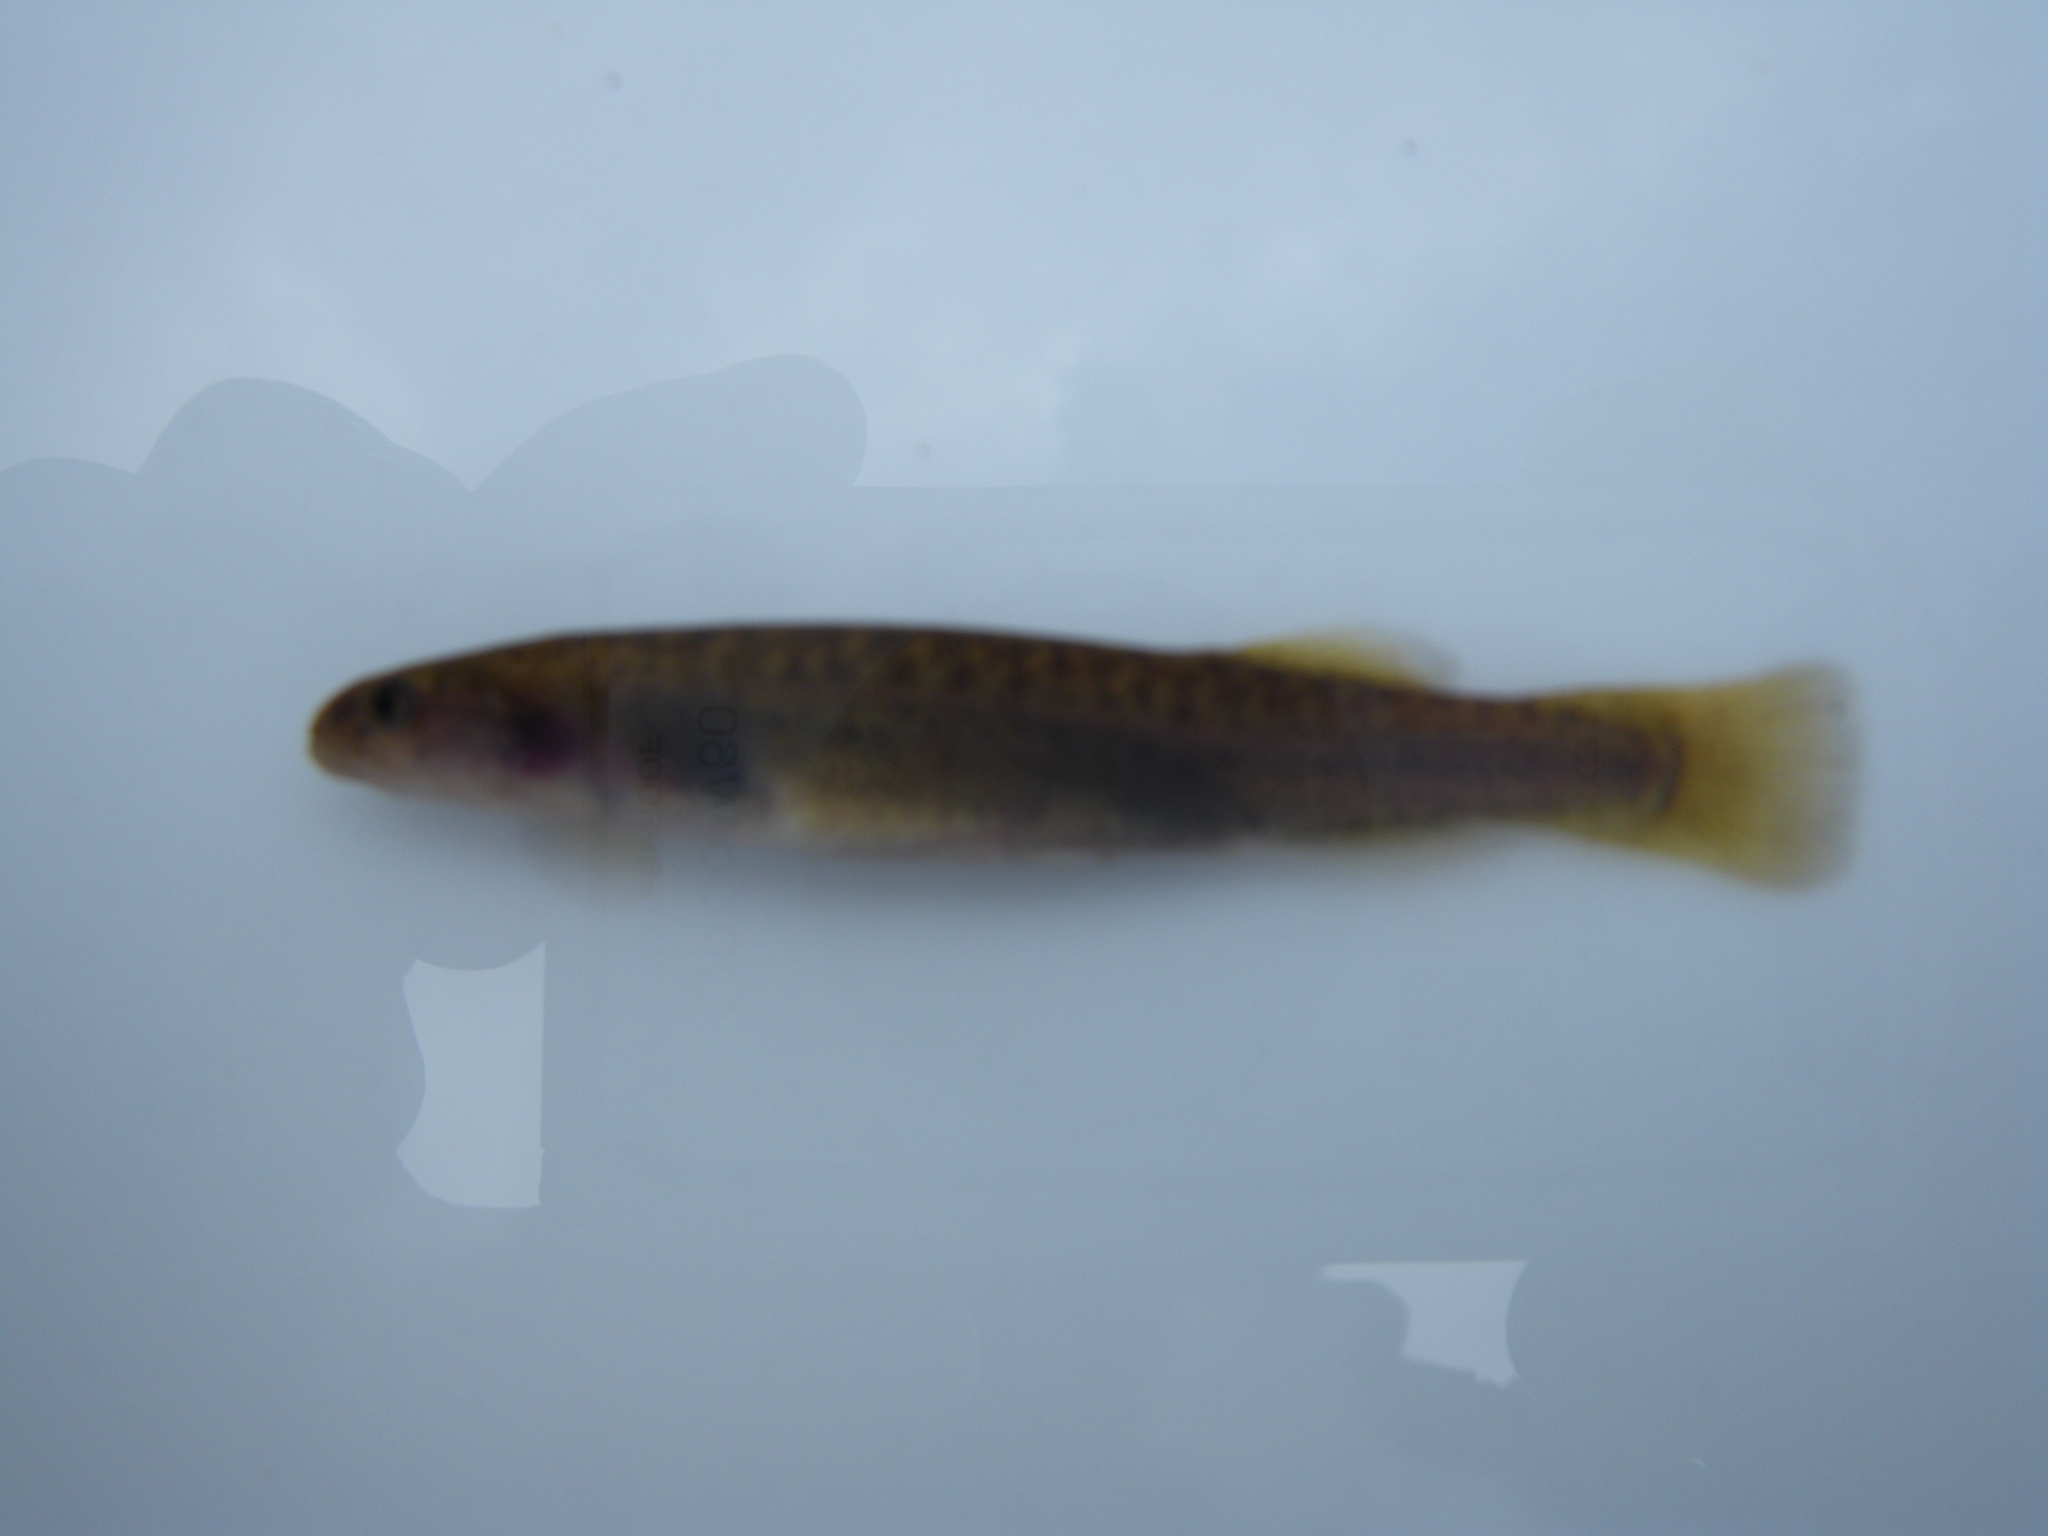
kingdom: Animalia
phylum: Chordata
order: Osmeriformes
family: Galaxiidae
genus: Galaxias
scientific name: Galaxias
